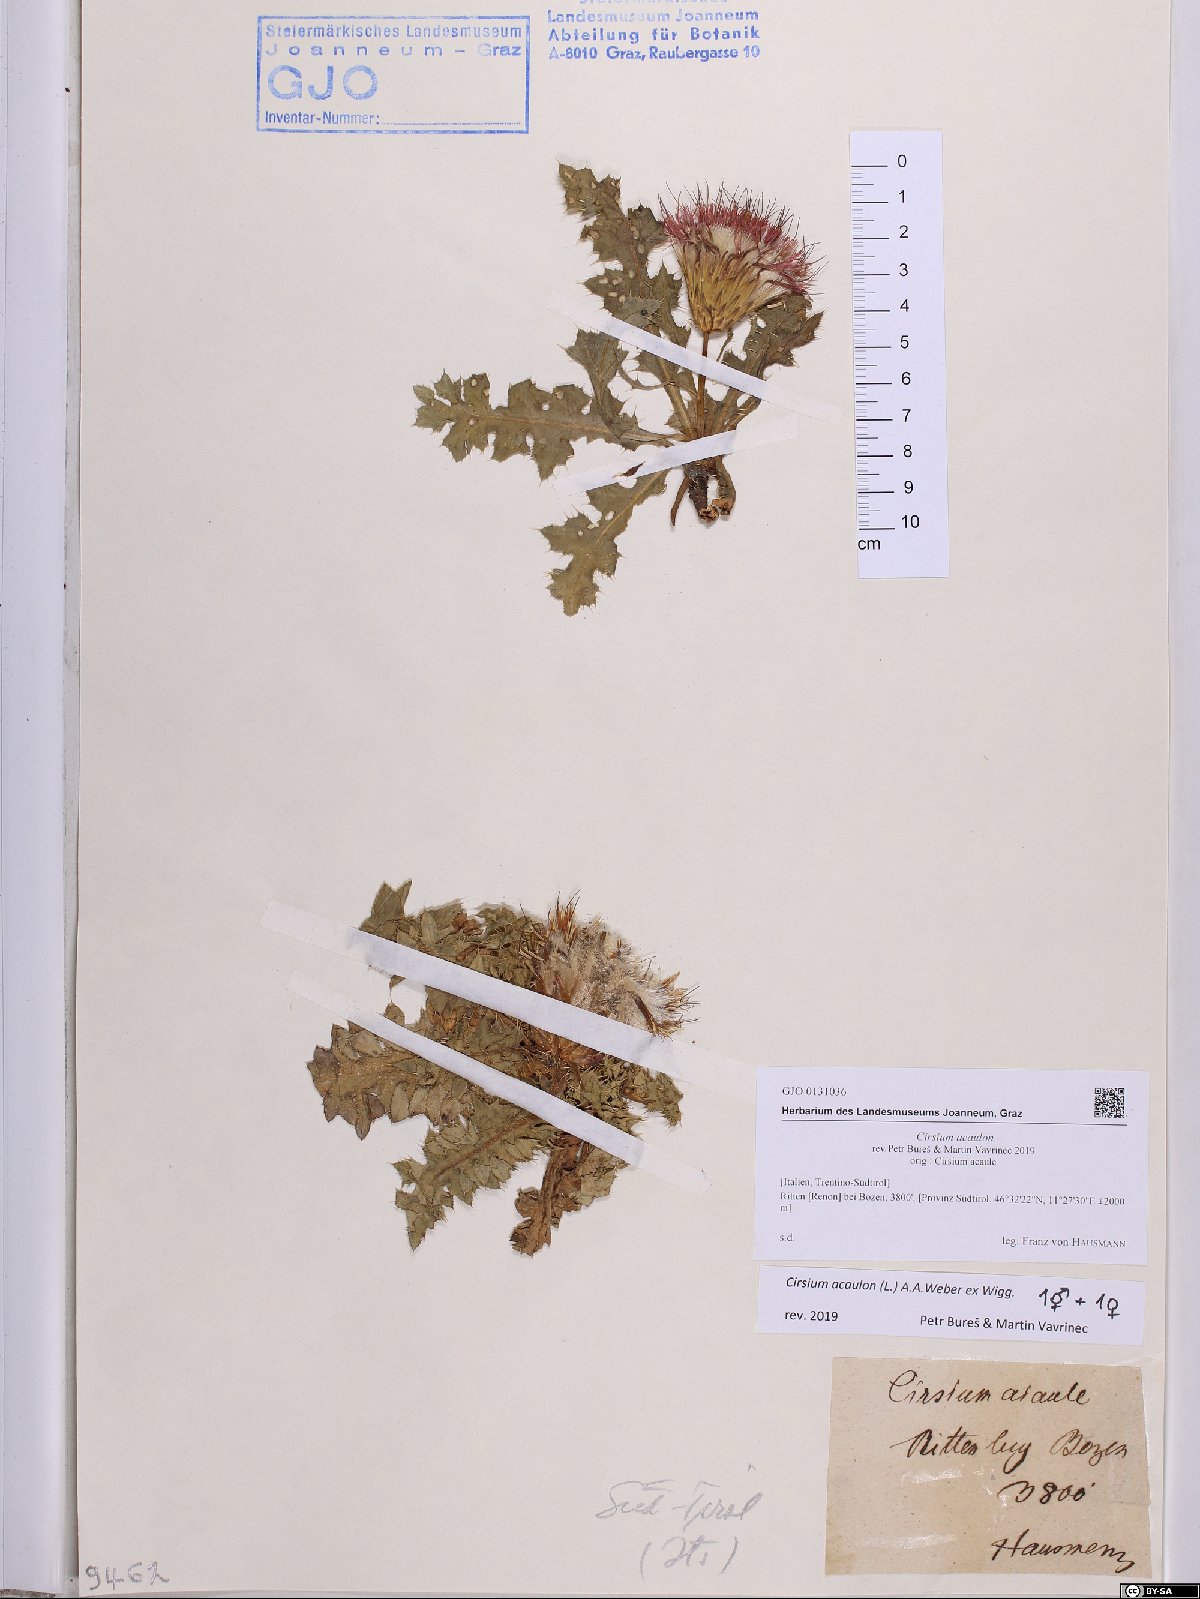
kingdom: Plantae
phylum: Tracheophyta
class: Magnoliopsida
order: Asterales
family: Asteraceae
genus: Cirsium
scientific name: Cirsium acaulon
